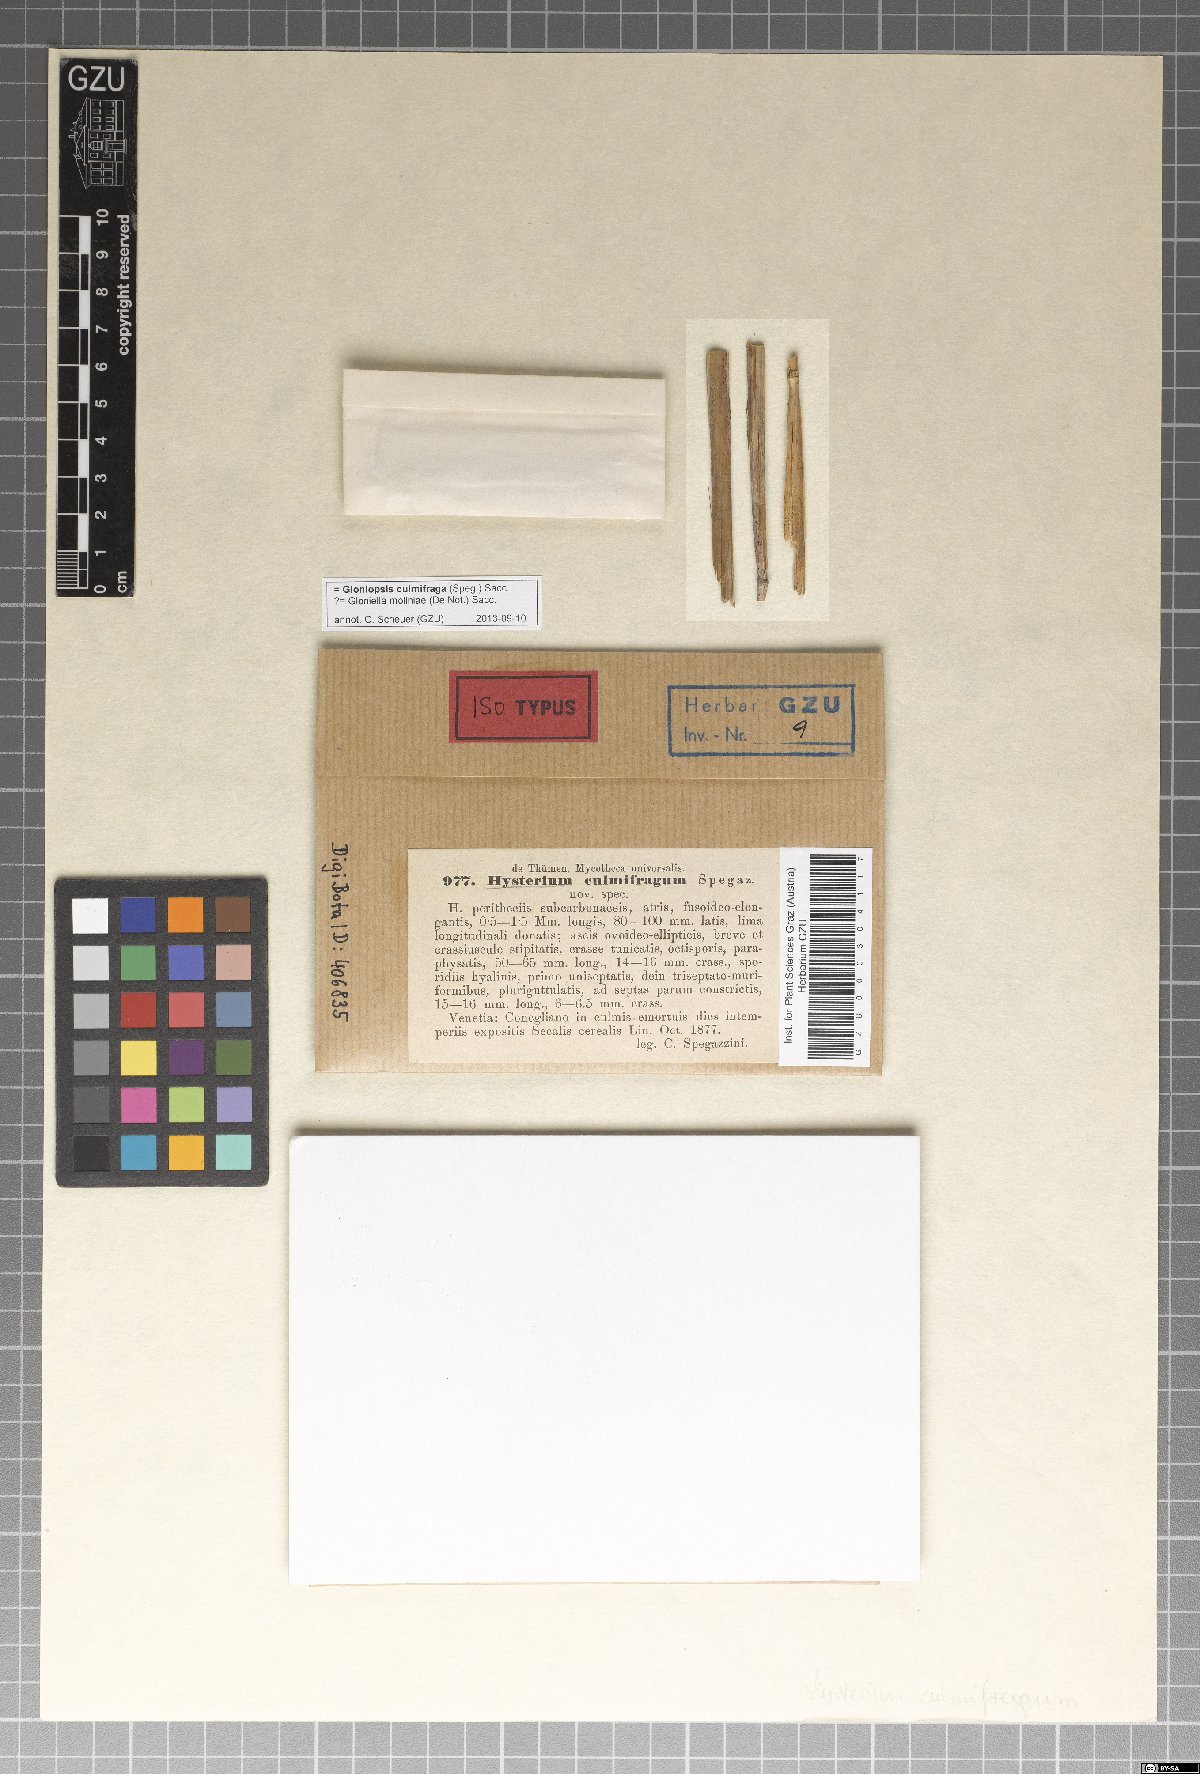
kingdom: Fungi
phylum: Ascomycota
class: Dothideomycetes
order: Hysteriales
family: Hysteriaceae
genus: Hysterium
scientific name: Hysterium
